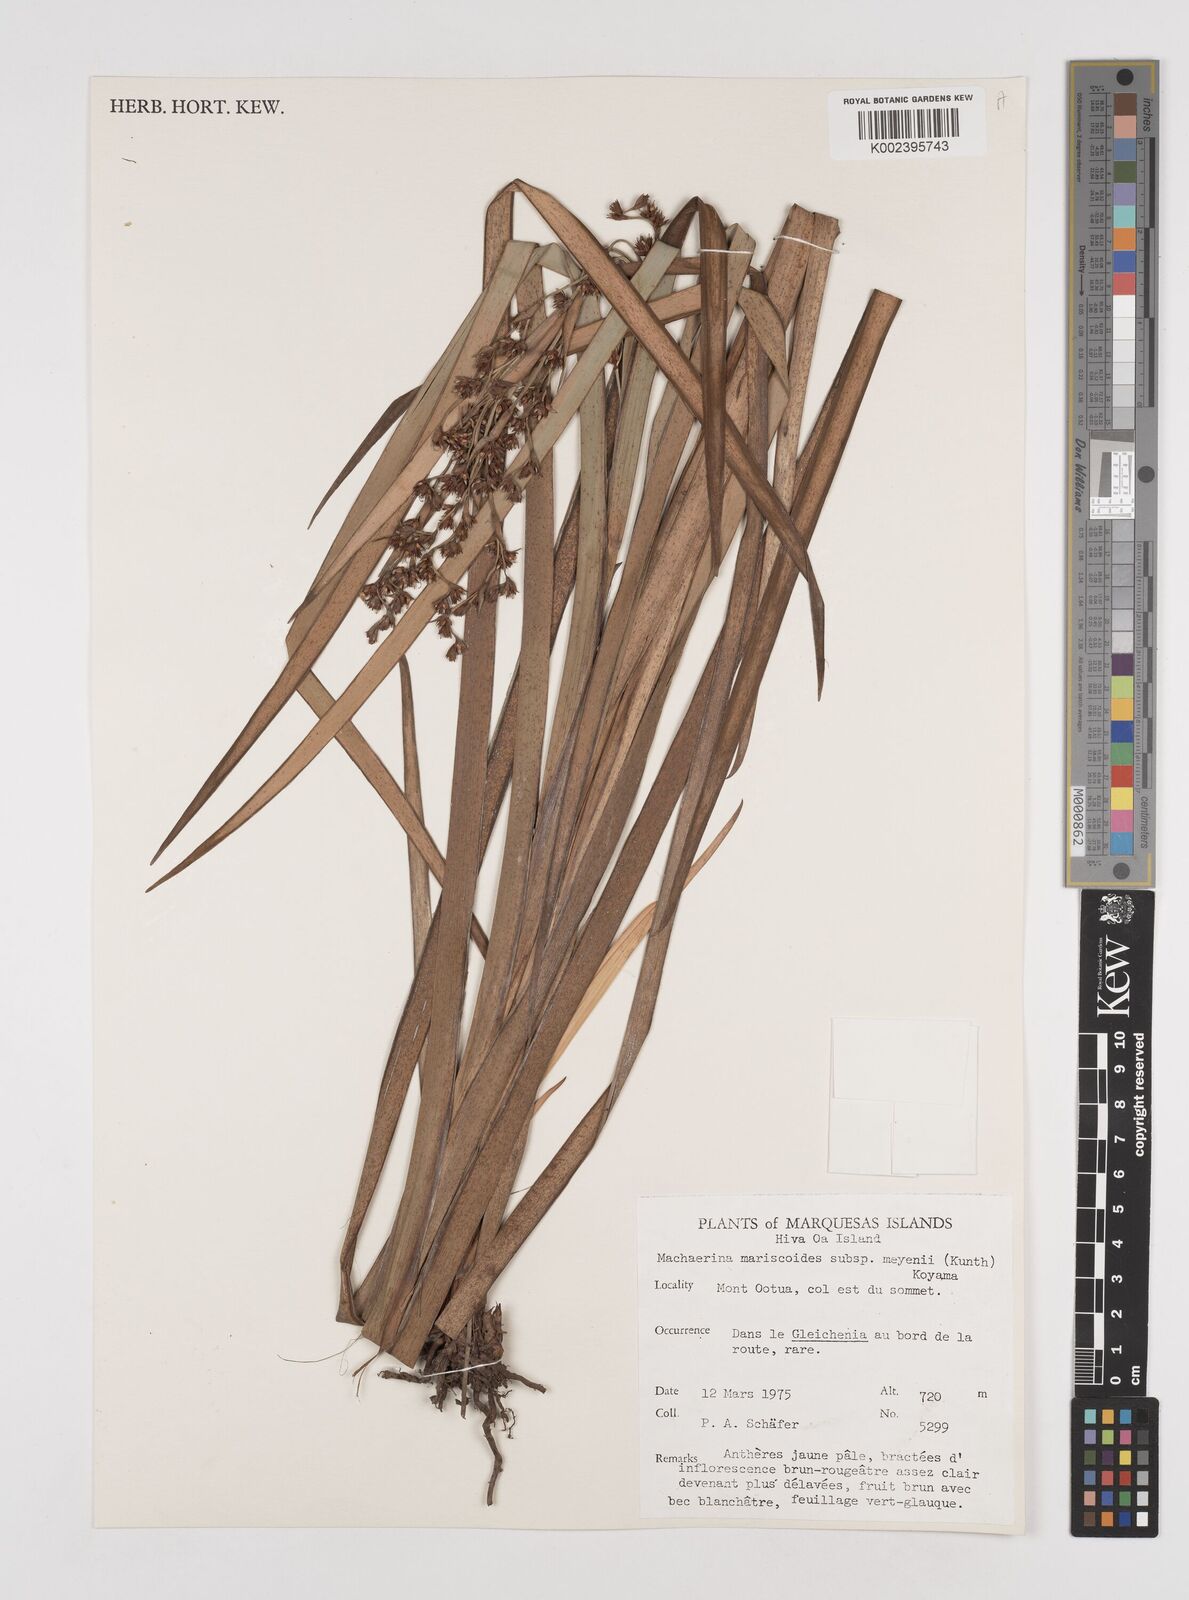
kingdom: Plantae
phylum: Tracheophyta
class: Liliopsida
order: Poales
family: Cyperaceae
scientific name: Cyperaceae
